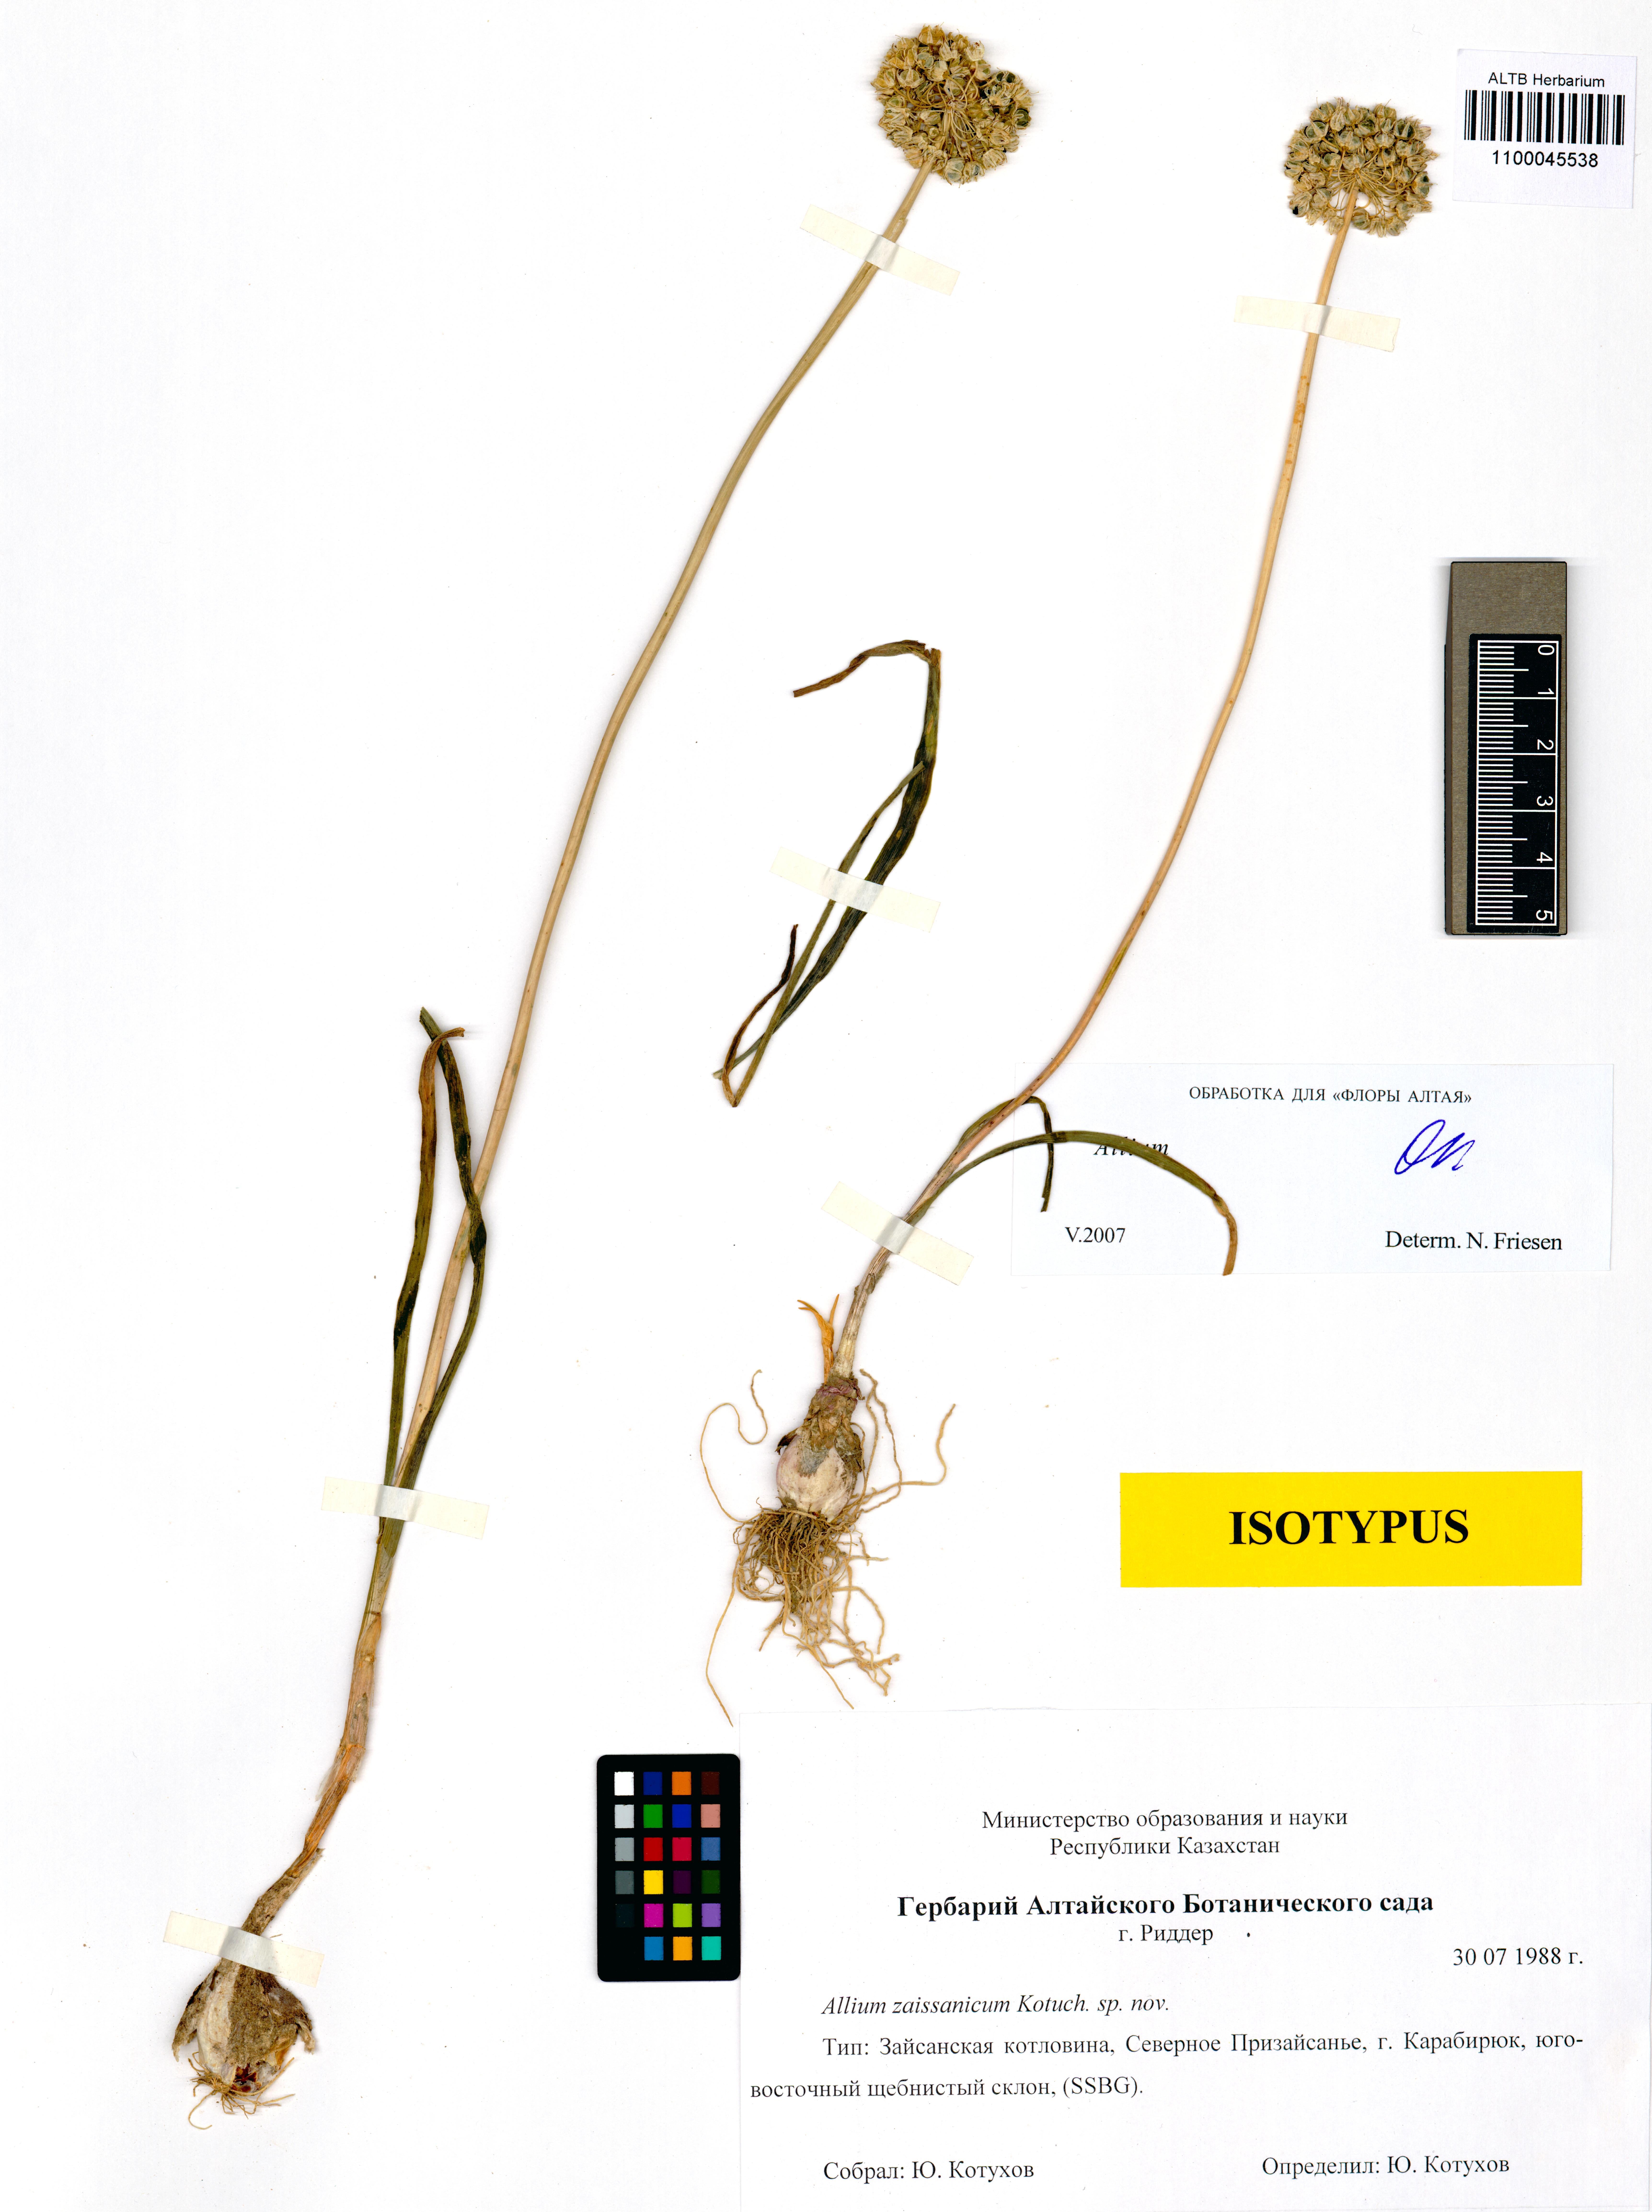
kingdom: Plantae
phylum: Tracheophyta
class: Liliopsida
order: Asparagales
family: Amaryllidaceae
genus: Allium
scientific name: Allium zaissanicum
